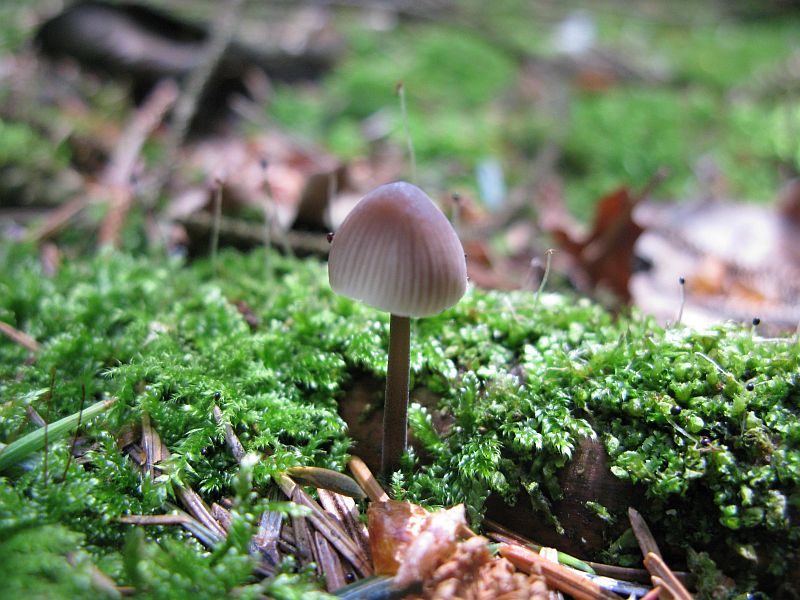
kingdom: Fungi
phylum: Basidiomycota
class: Agaricomycetes
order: Agaricales
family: Mycenaceae
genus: Mycena
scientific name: Mycena abramsii
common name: sommer-huesvamp
